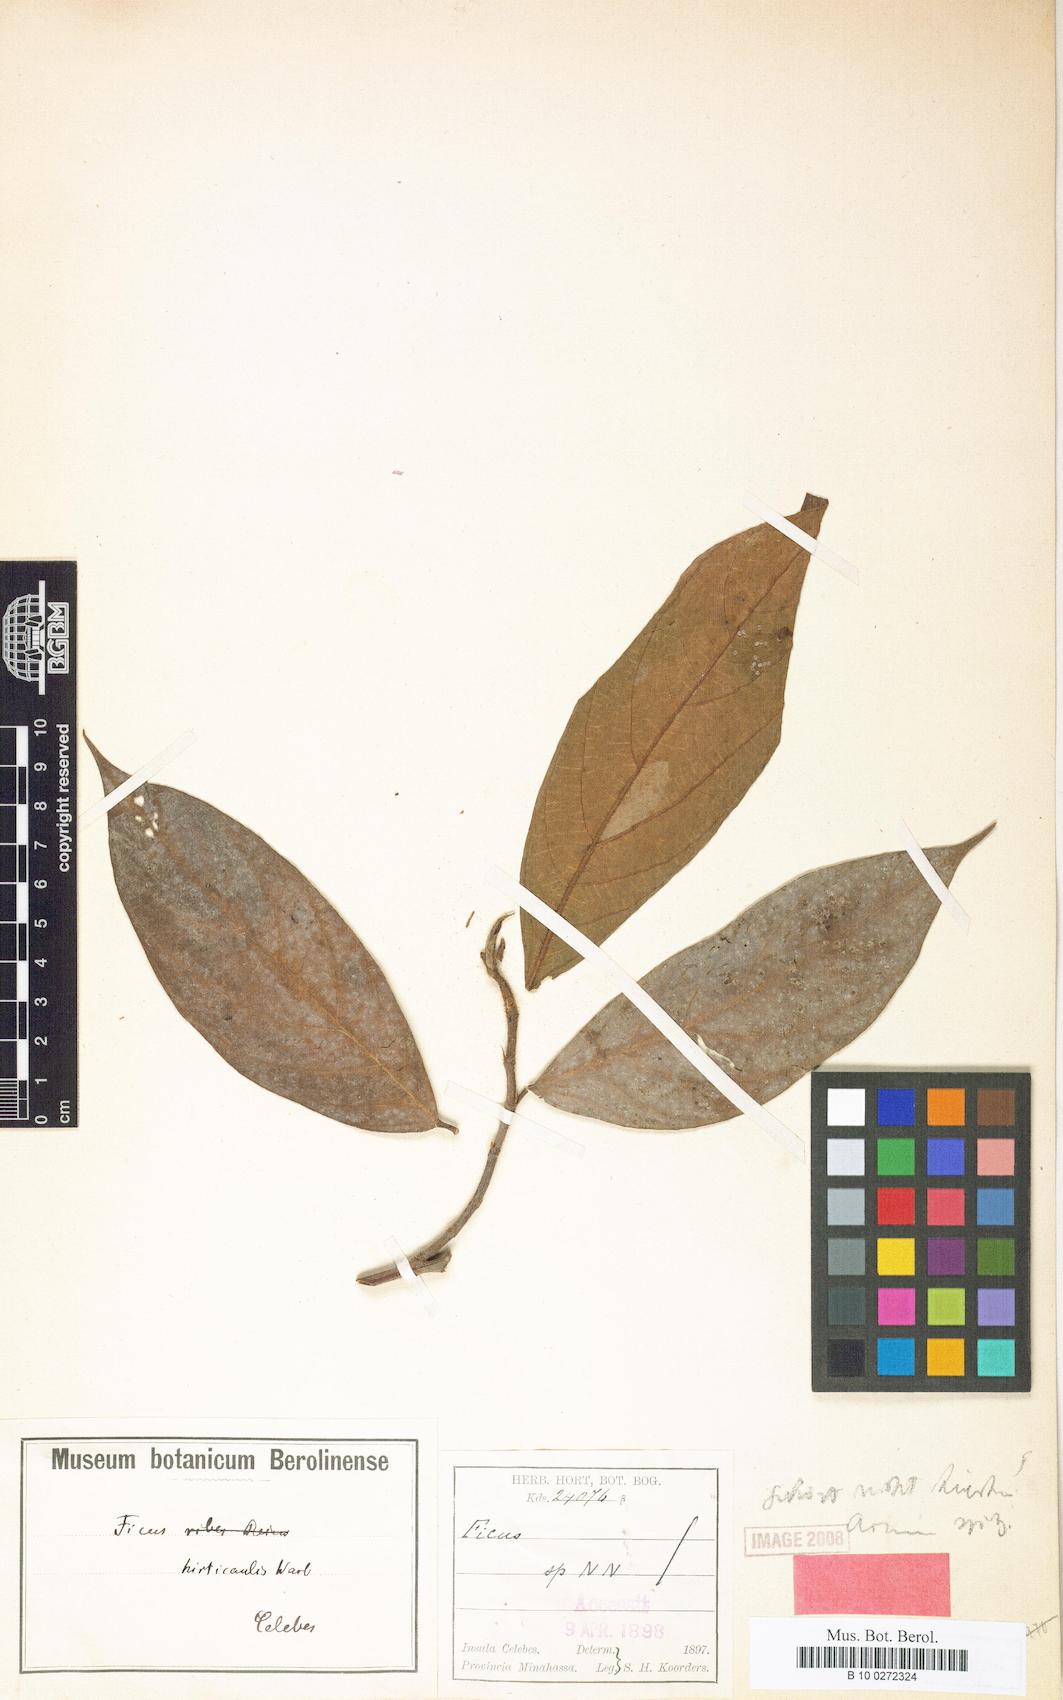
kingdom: Plantae
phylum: Tracheophyta
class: Magnoliopsida
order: Rosales
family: Moraceae
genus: Ficus
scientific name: Ficus
